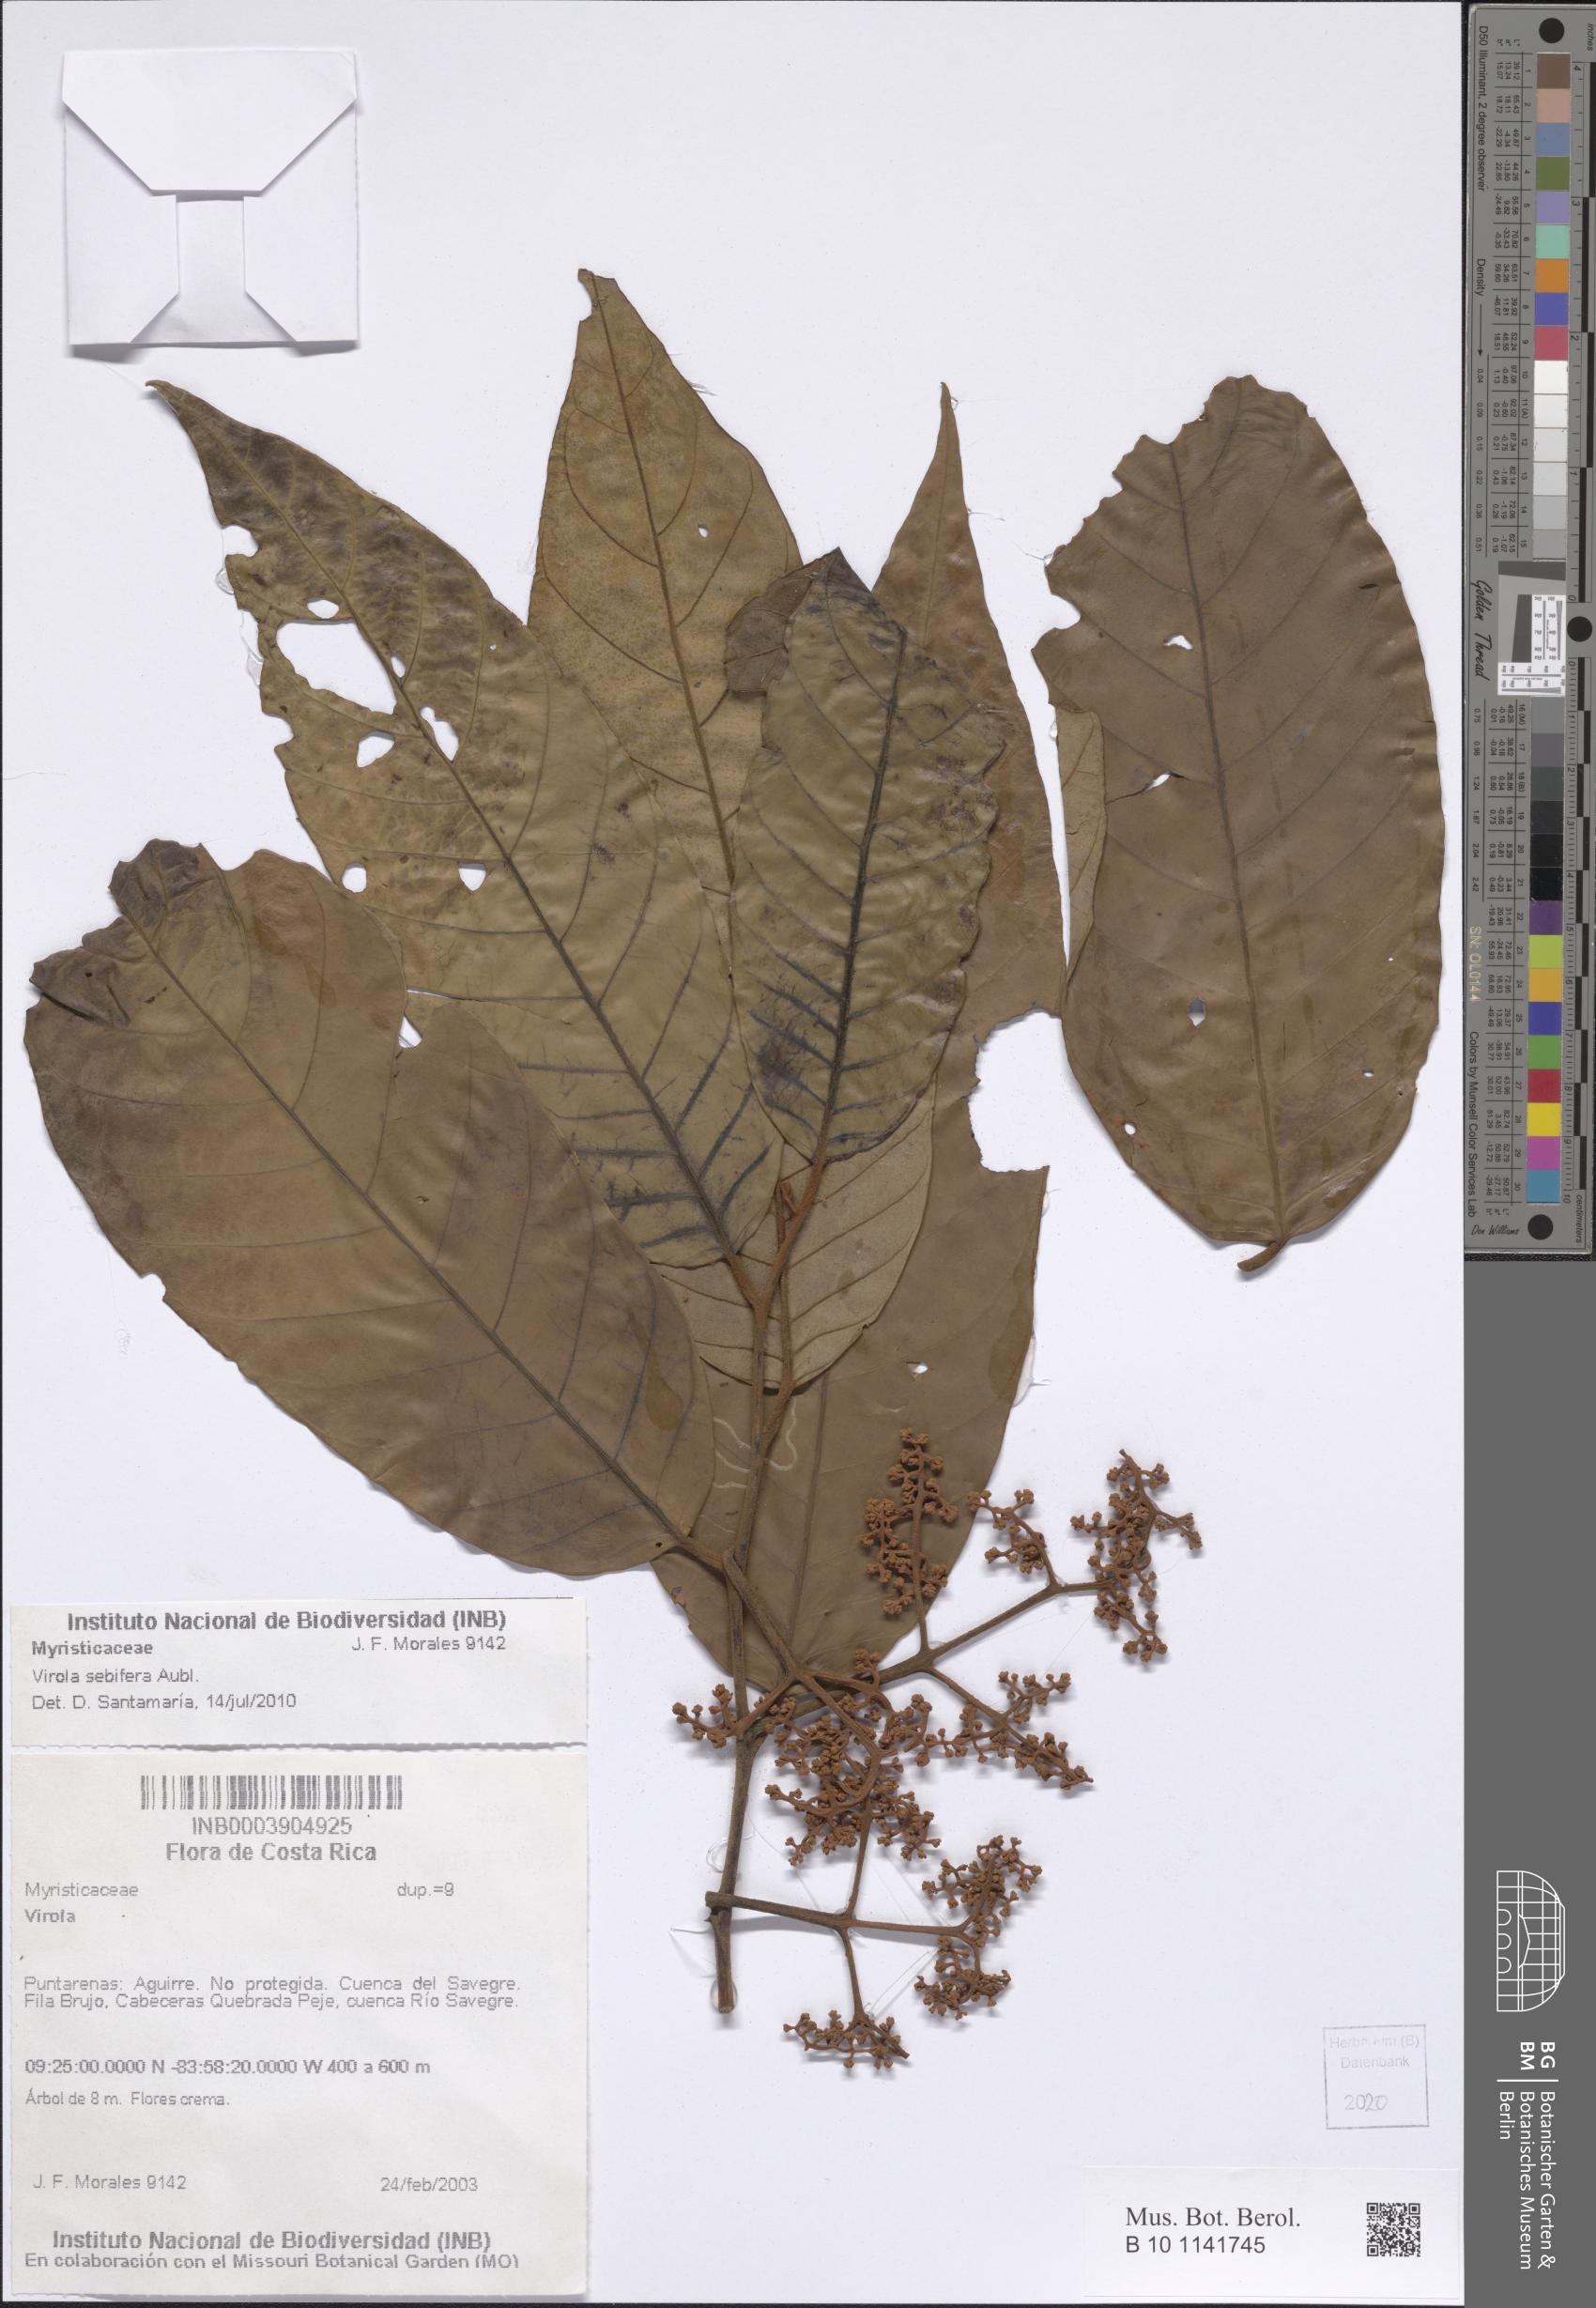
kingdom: Plantae
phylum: Tracheophyta
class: Magnoliopsida
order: Magnoliales
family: Myristicaceae
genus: Virola
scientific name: Virola sebifera
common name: Red ucuuba
